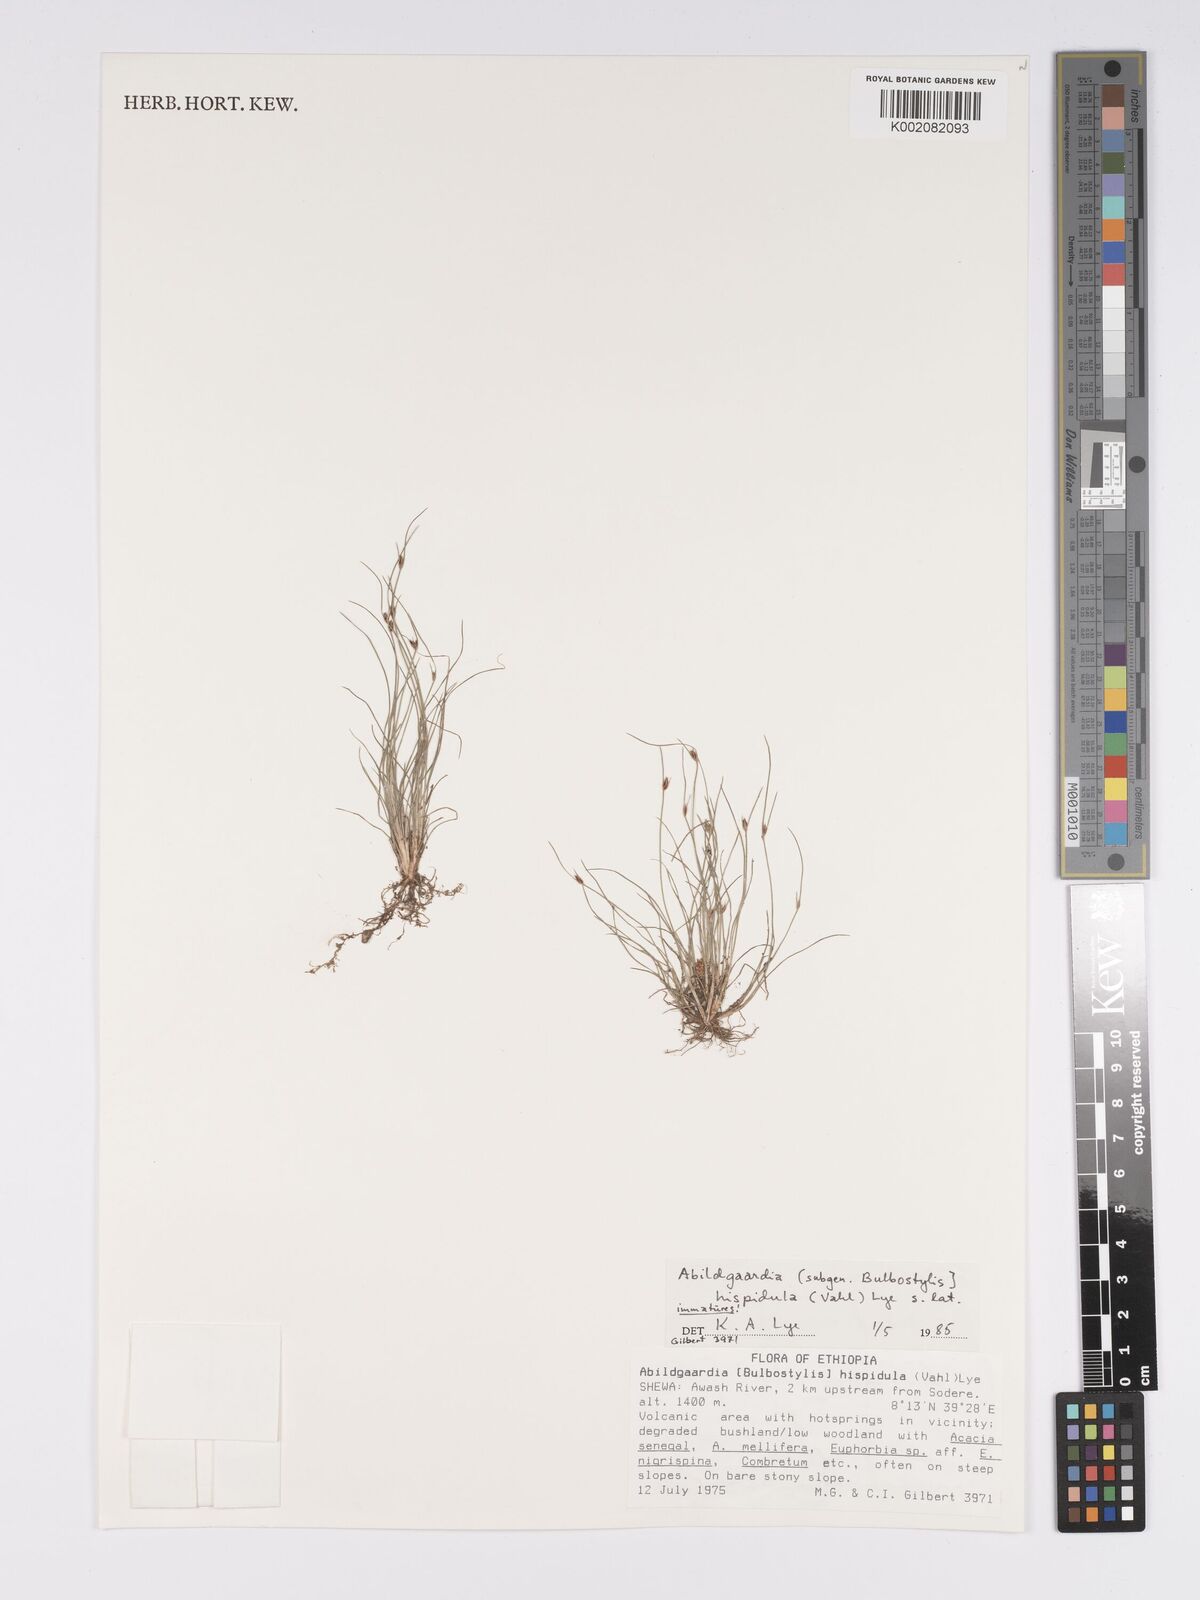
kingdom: Plantae
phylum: Tracheophyta
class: Liliopsida
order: Poales
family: Cyperaceae
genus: Bulbostylis
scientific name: Bulbostylis hispidula
